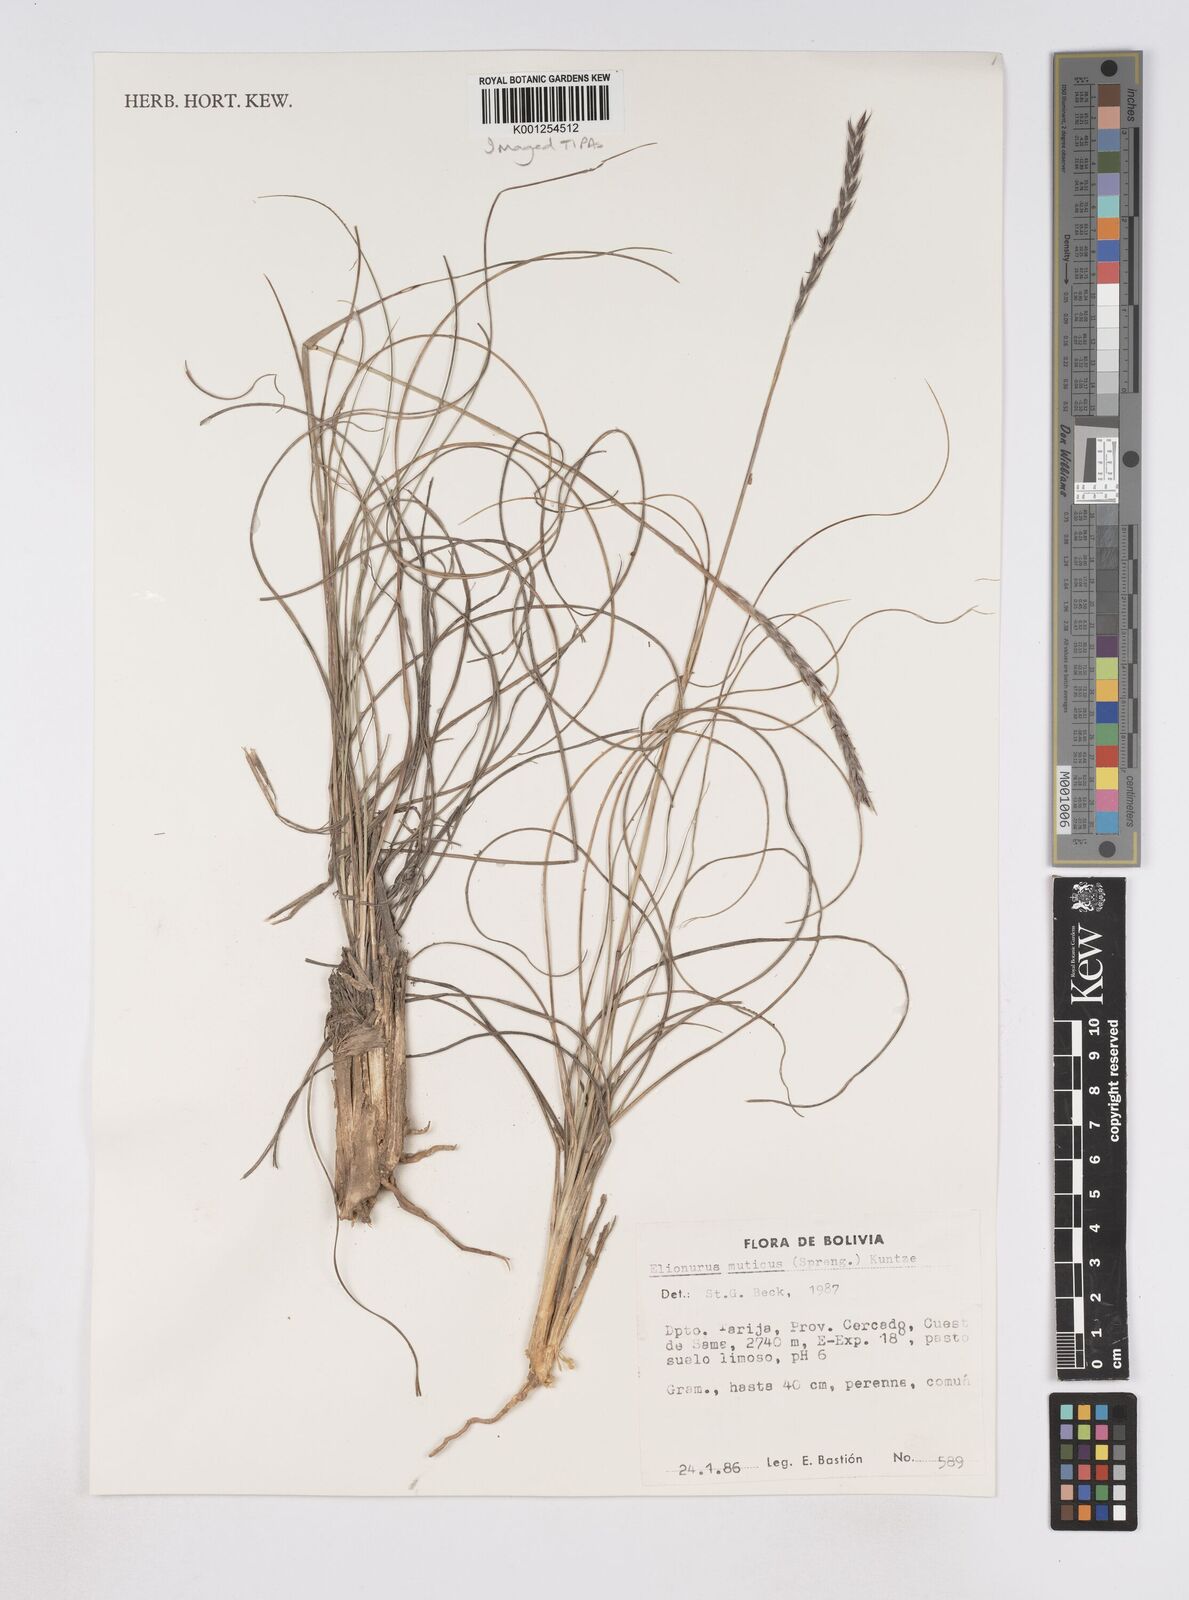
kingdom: Plantae
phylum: Tracheophyta
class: Liliopsida
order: Poales
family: Poaceae
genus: Elionurus
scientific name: Elionurus muticus
